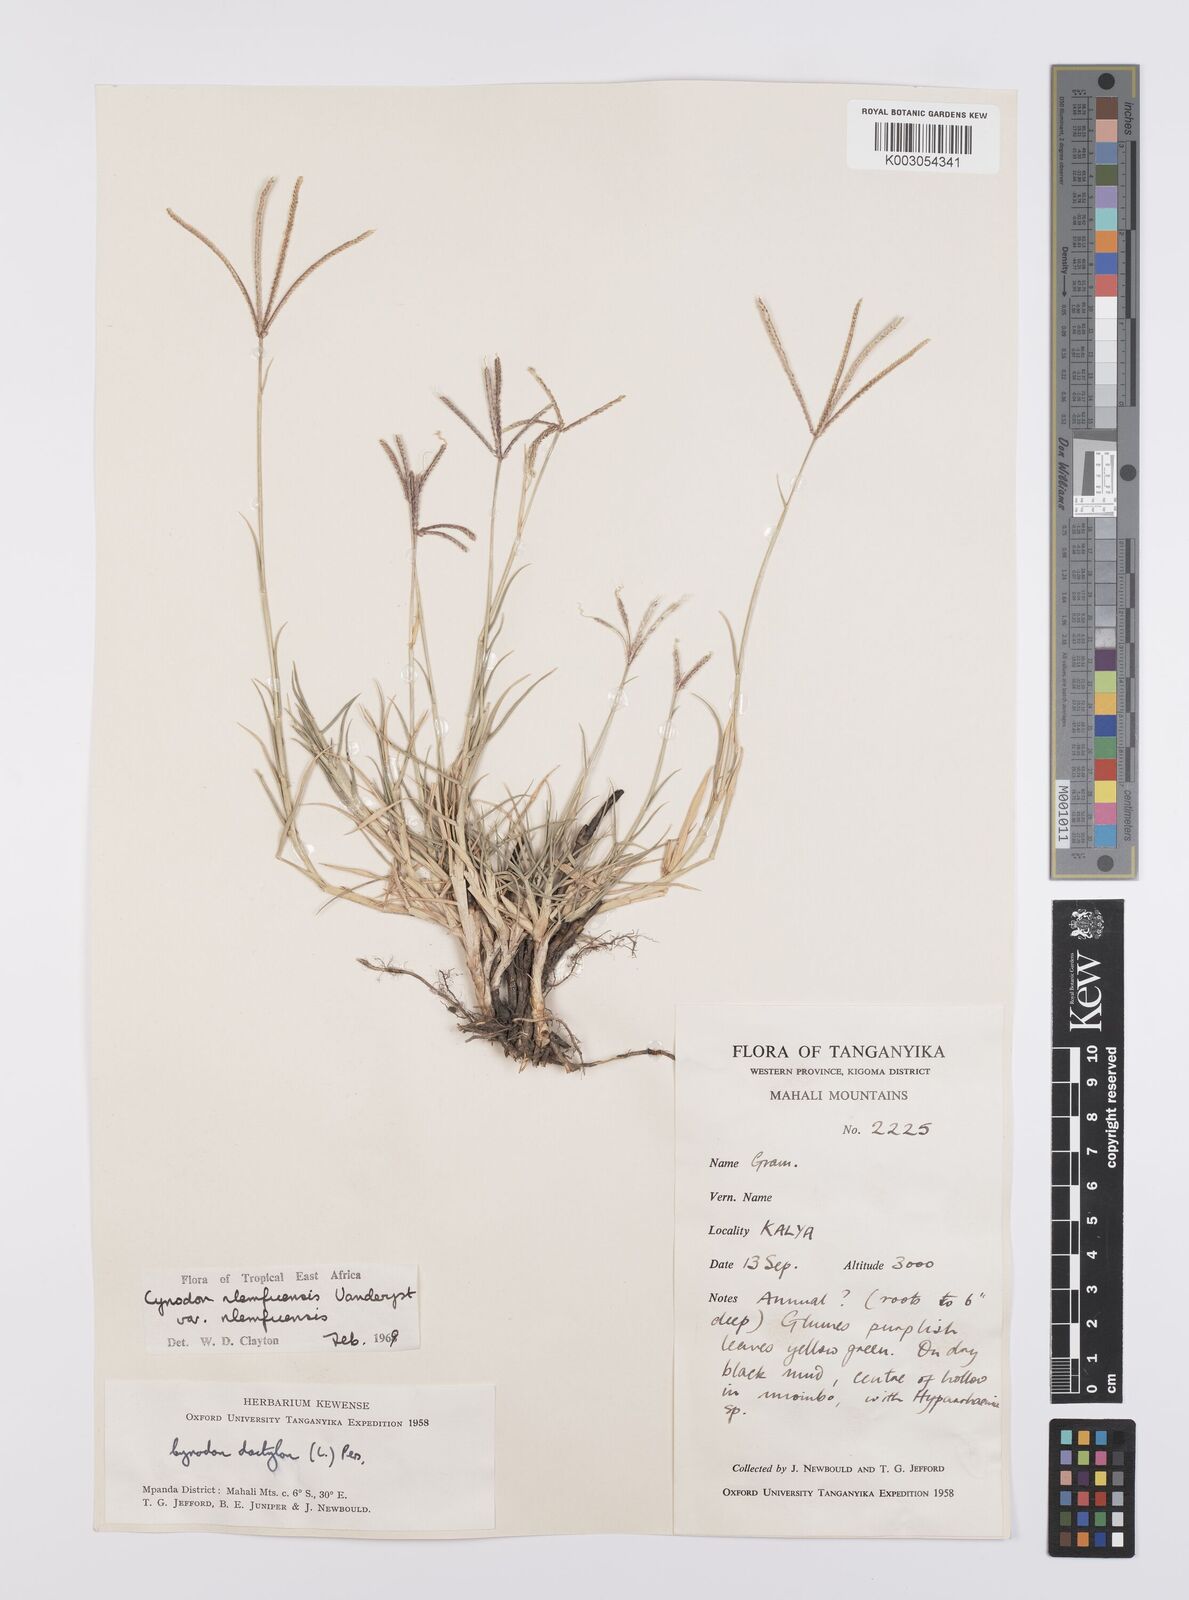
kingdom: Plantae
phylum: Tracheophyta
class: Liliopsida
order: Poales
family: Poaceae
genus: Cynodon
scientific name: Cynodon nlemfuensis
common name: African bermudagrass
